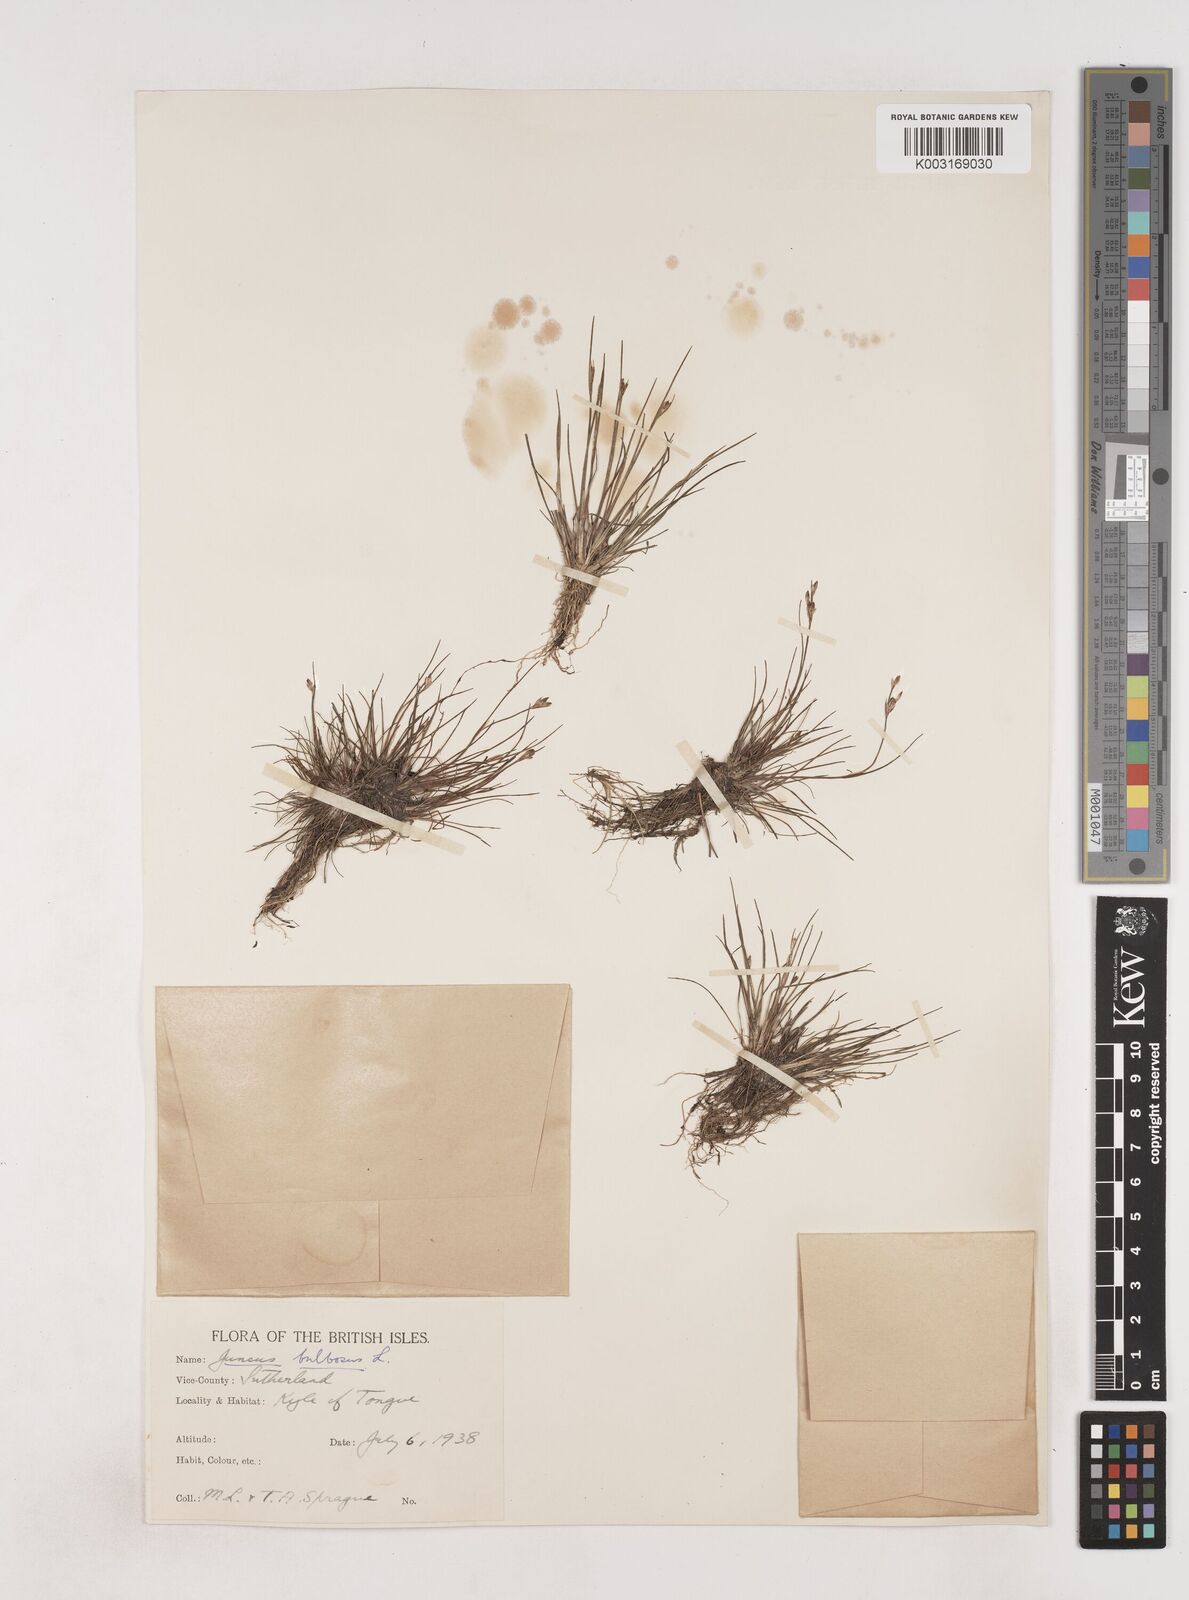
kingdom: Plantae
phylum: Tracheophyta
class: Liliopsida
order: Poales
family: Juncaceae
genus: Juncus
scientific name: Juncus bulbosus
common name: Bulbous rush
